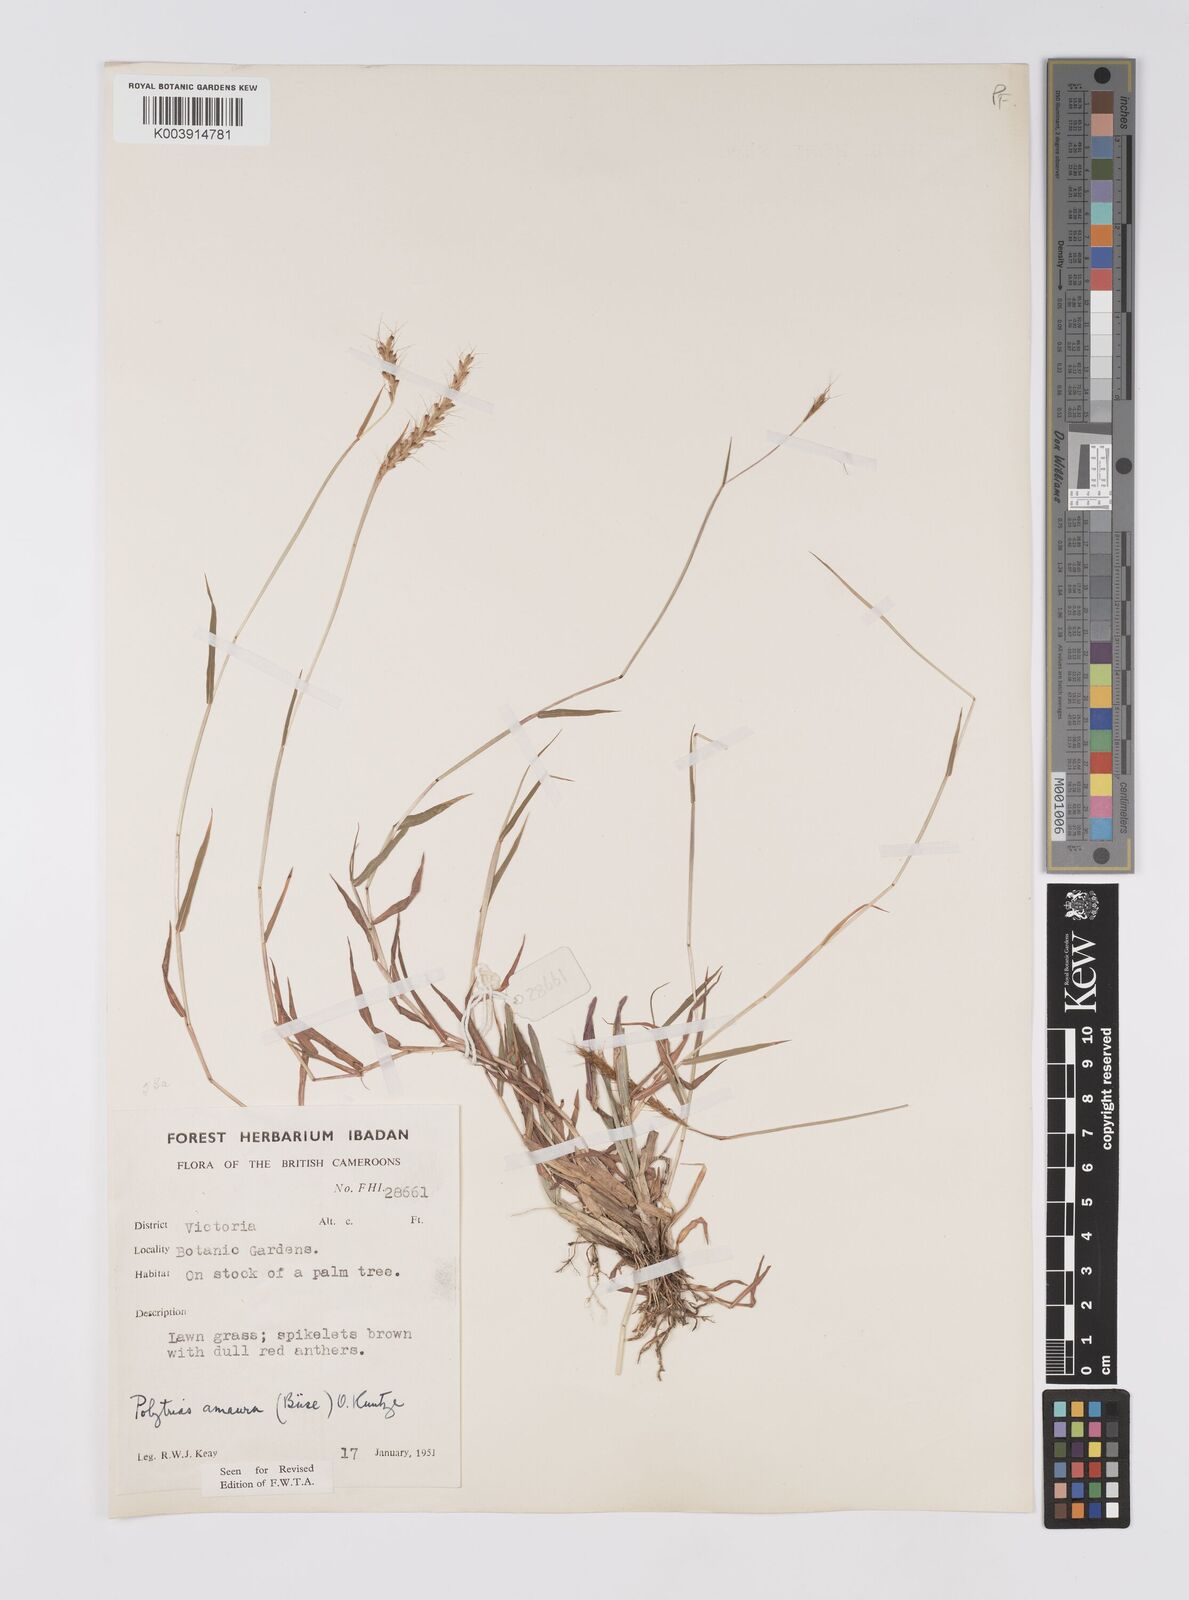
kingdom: Plantae
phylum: Tracheophyta
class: Liliopsida
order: Poales
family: Poaceae
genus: Polytrias
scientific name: Polytrias indica
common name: Indian murainagrass
